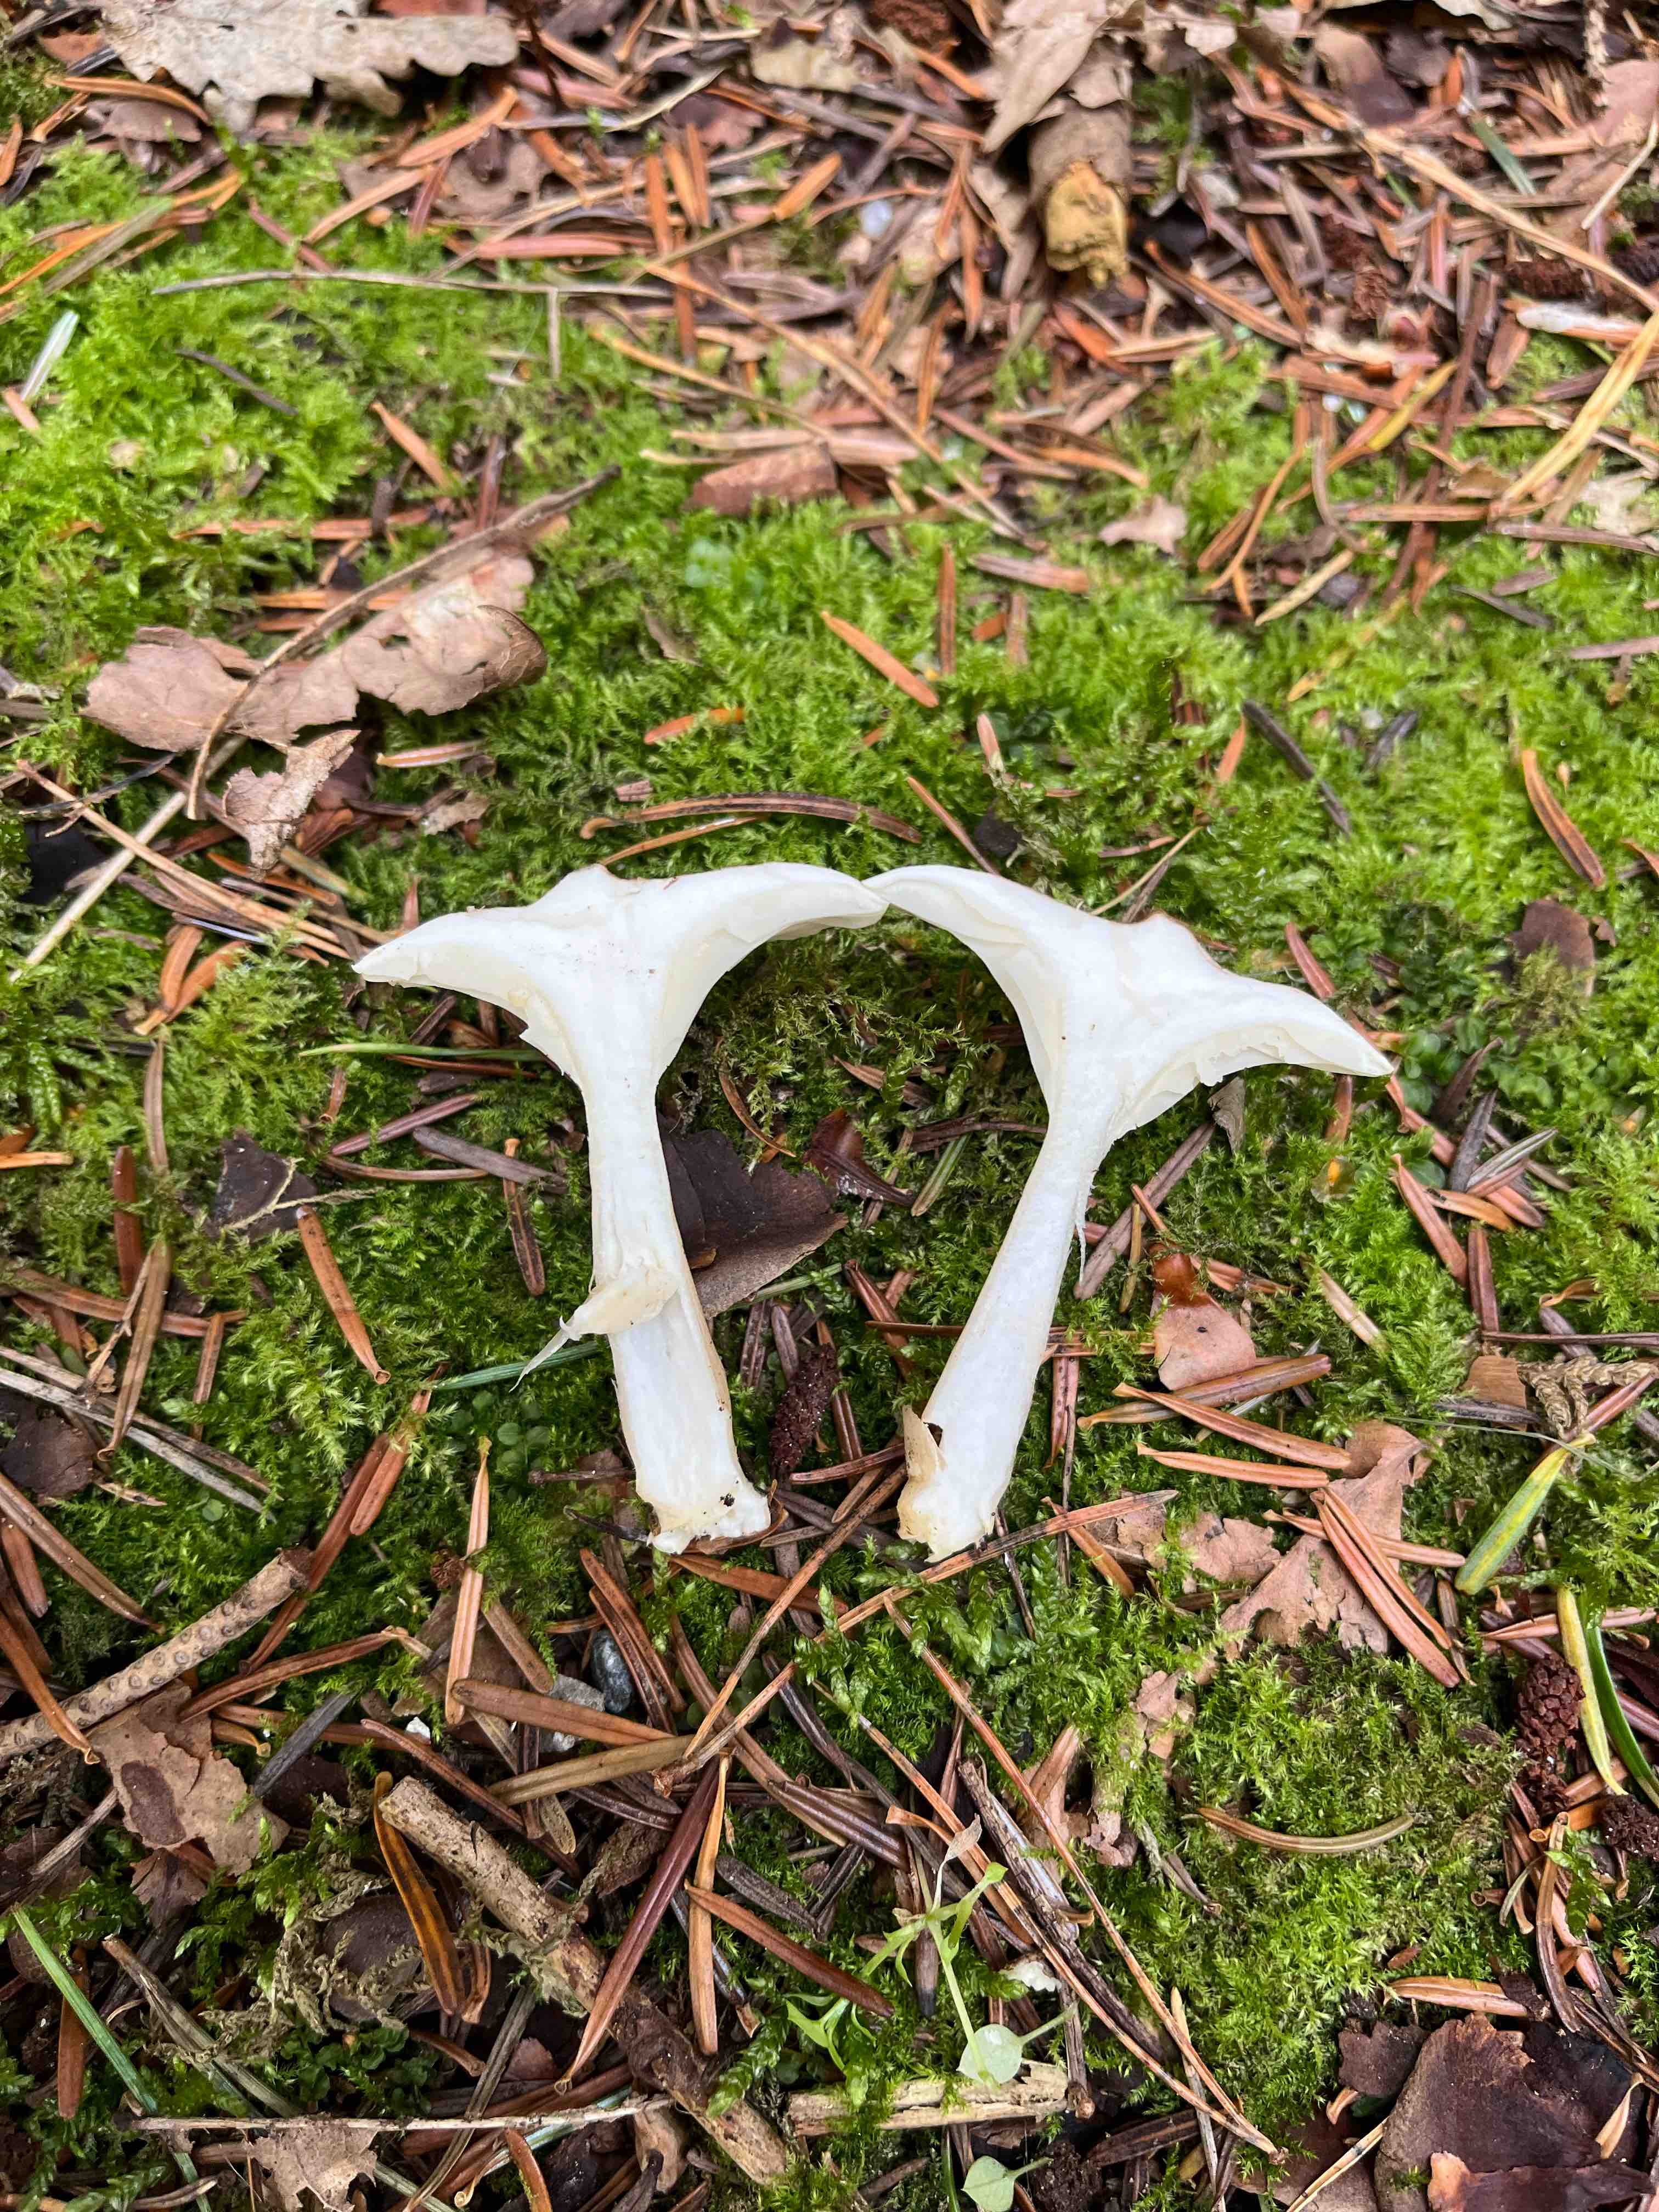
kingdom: Fungi
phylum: Basidiomycota
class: Agaricomycetes
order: Agaricales
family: Hygrophoraceae
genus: Ampulloclitocybe
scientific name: Ampulloclitocybe clavipes
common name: køllefod
